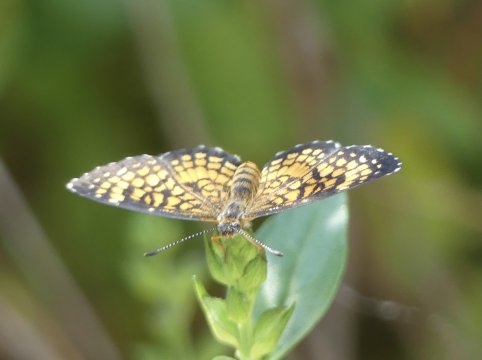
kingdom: Animalia
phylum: Arthropoda
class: Insecta
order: Lepidoptera
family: Nymphalidae
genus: Texola
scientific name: Texola
